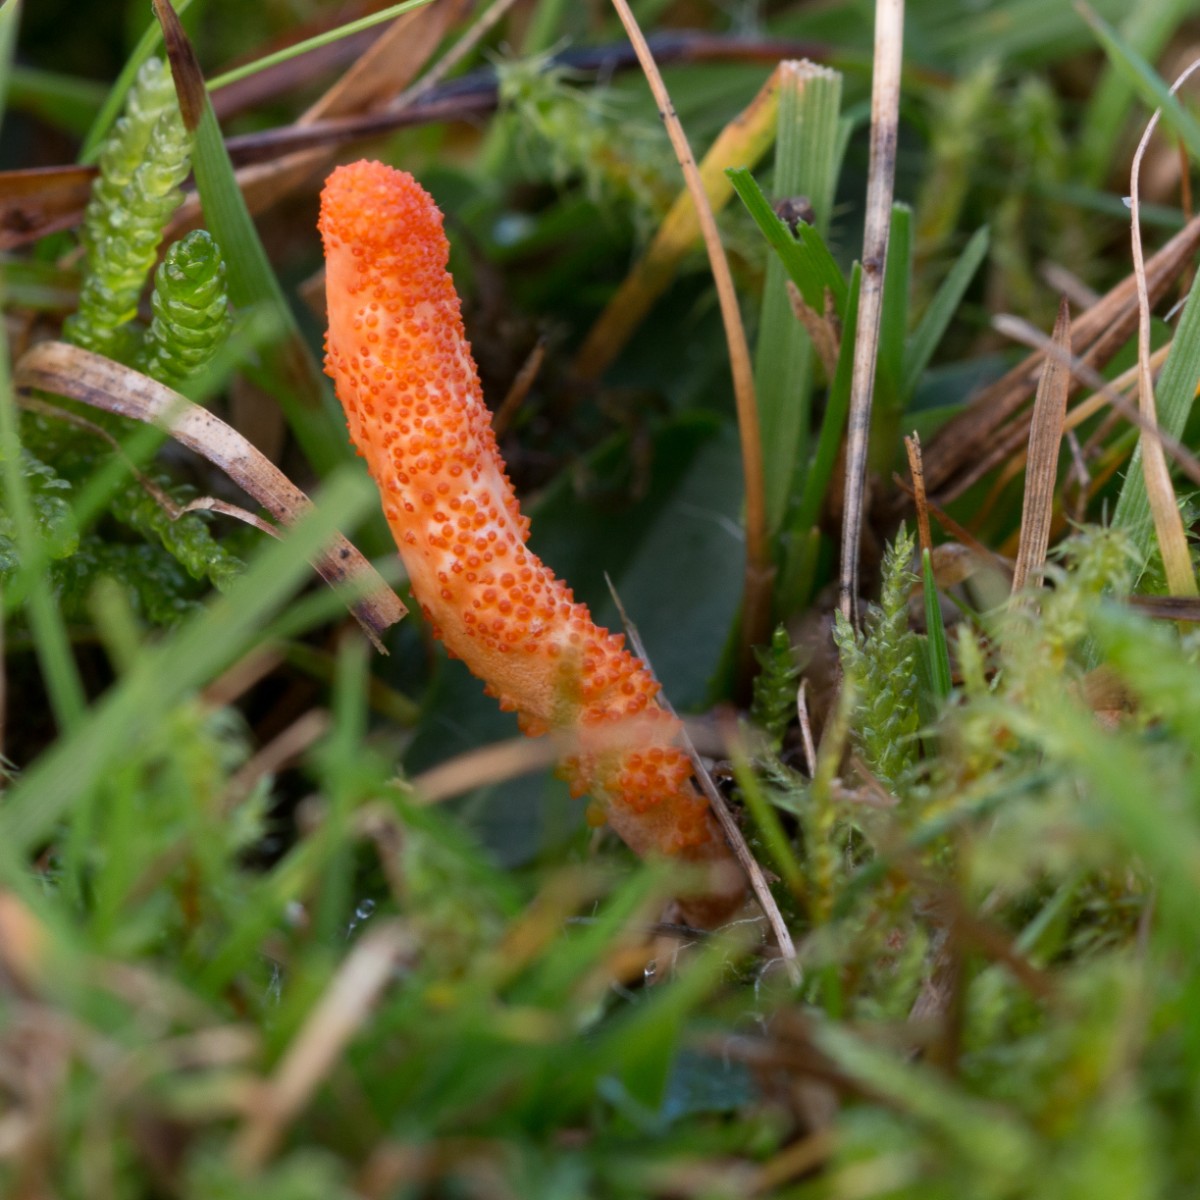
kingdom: Fungi
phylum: Ascomycota
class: Sordariomycetes
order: Hypocreales
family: Cordycipitaceae
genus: Cordyceps
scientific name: Cordyceps militaris
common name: puppe-snyltekølle
